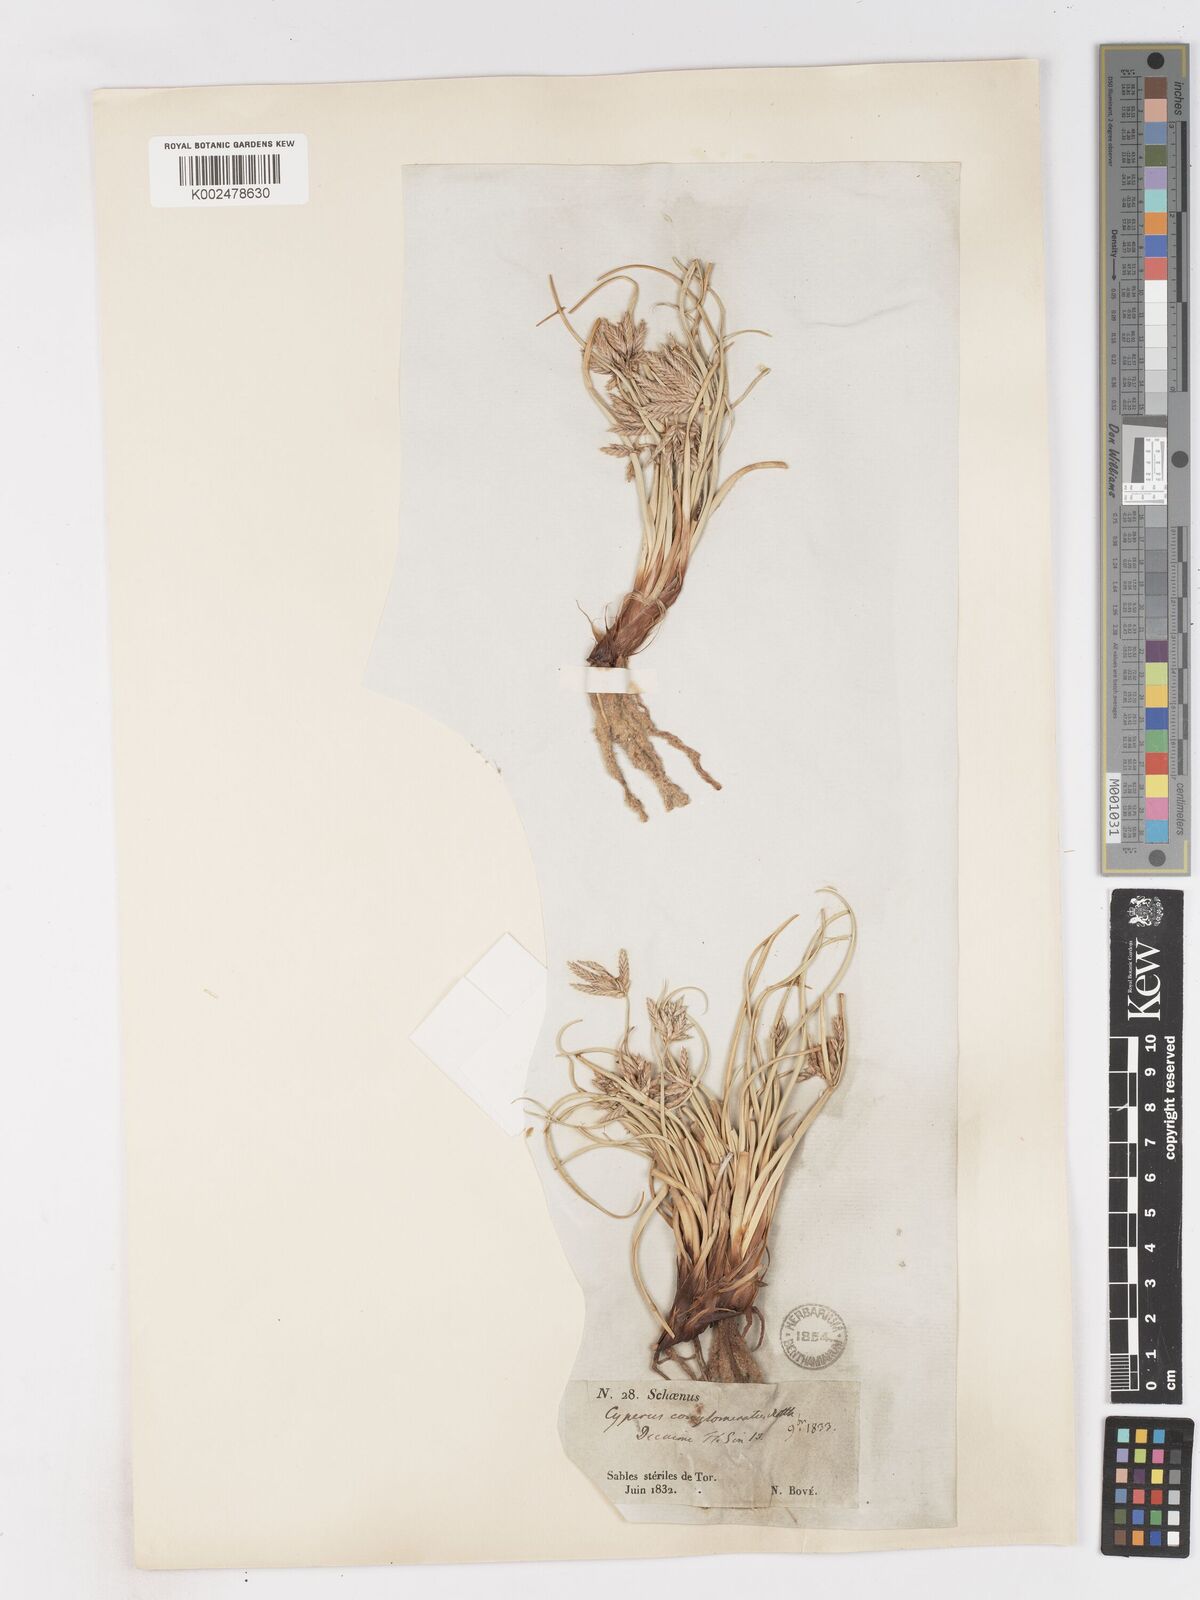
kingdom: Plantae
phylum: Tracheophyta
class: Liliopsida
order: Poales
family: Cyperaceae
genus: Cyperus
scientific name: Cyperus conglomeratus
